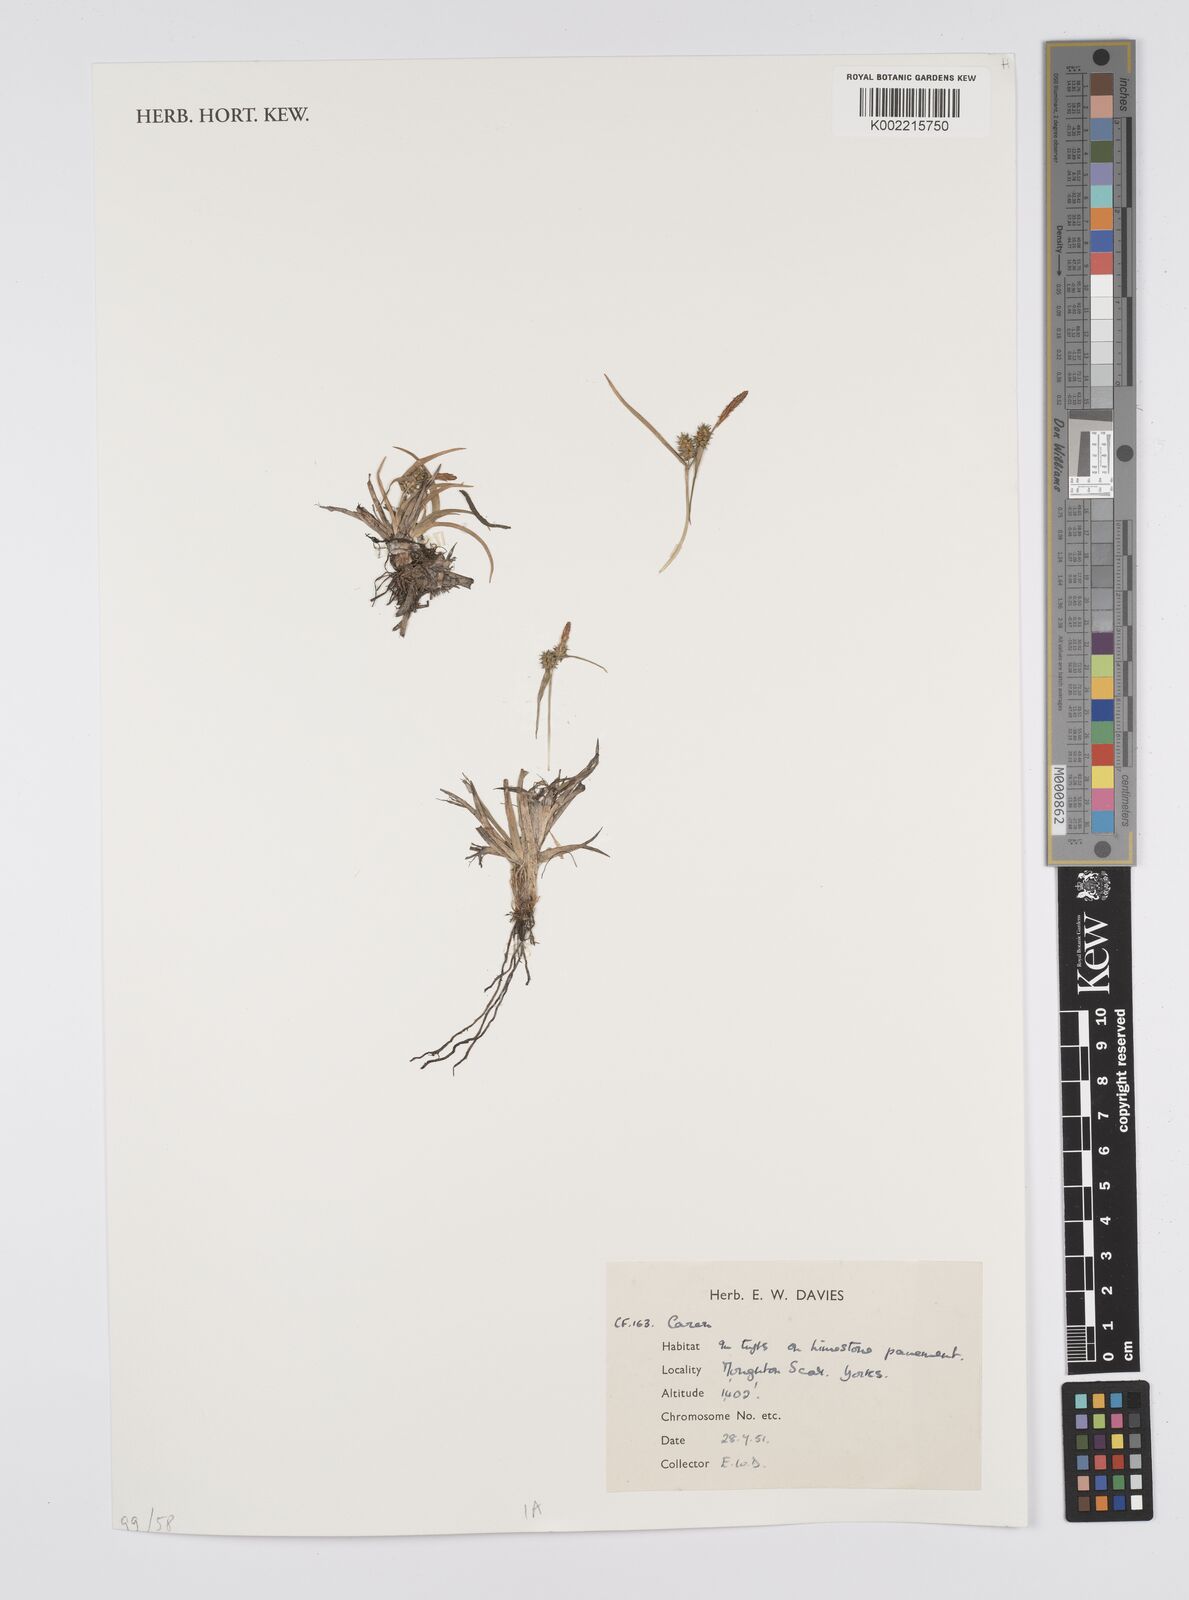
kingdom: Plantae
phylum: Tracheophyta
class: Liliopsida
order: Poales
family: Cyperaceae
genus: Carex
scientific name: Carex
